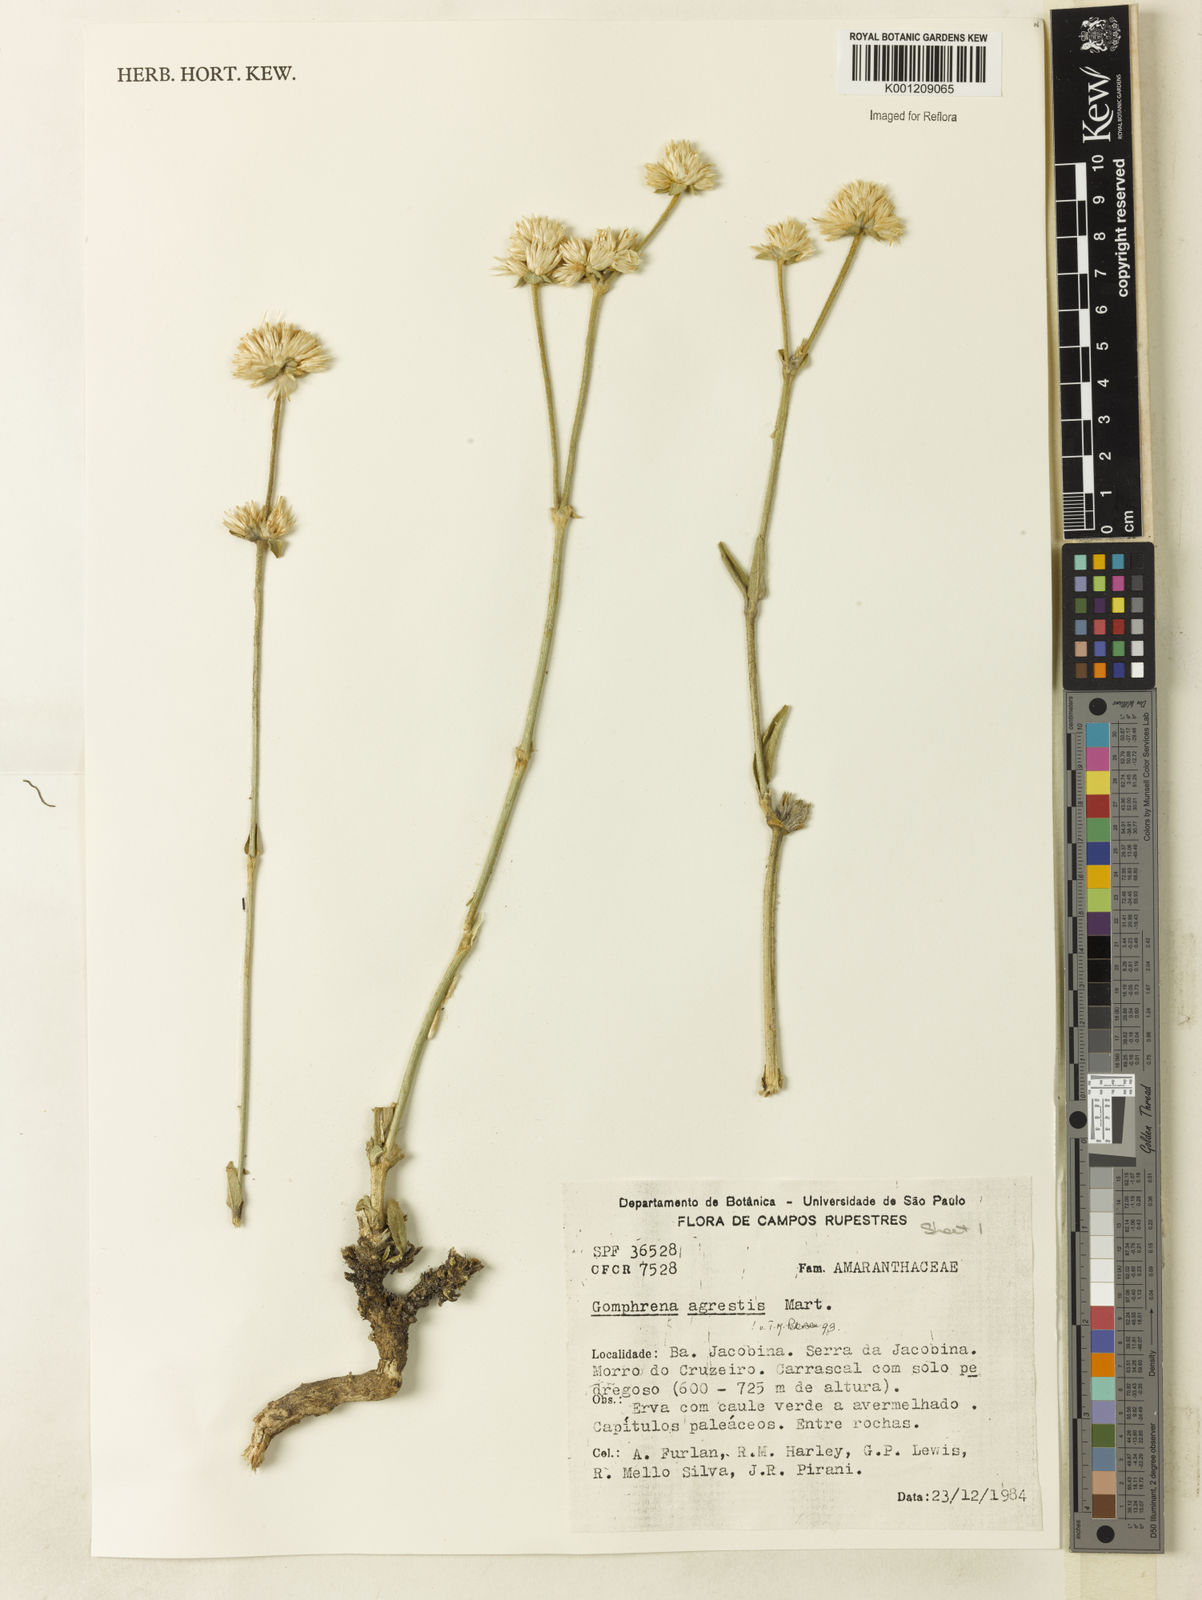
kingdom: Plantae
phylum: Tracheophyta
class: Magnoliopsida
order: Caryophyllales
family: Amaranthaceae
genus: Gomphrena
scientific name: Gomphrena agrestis
